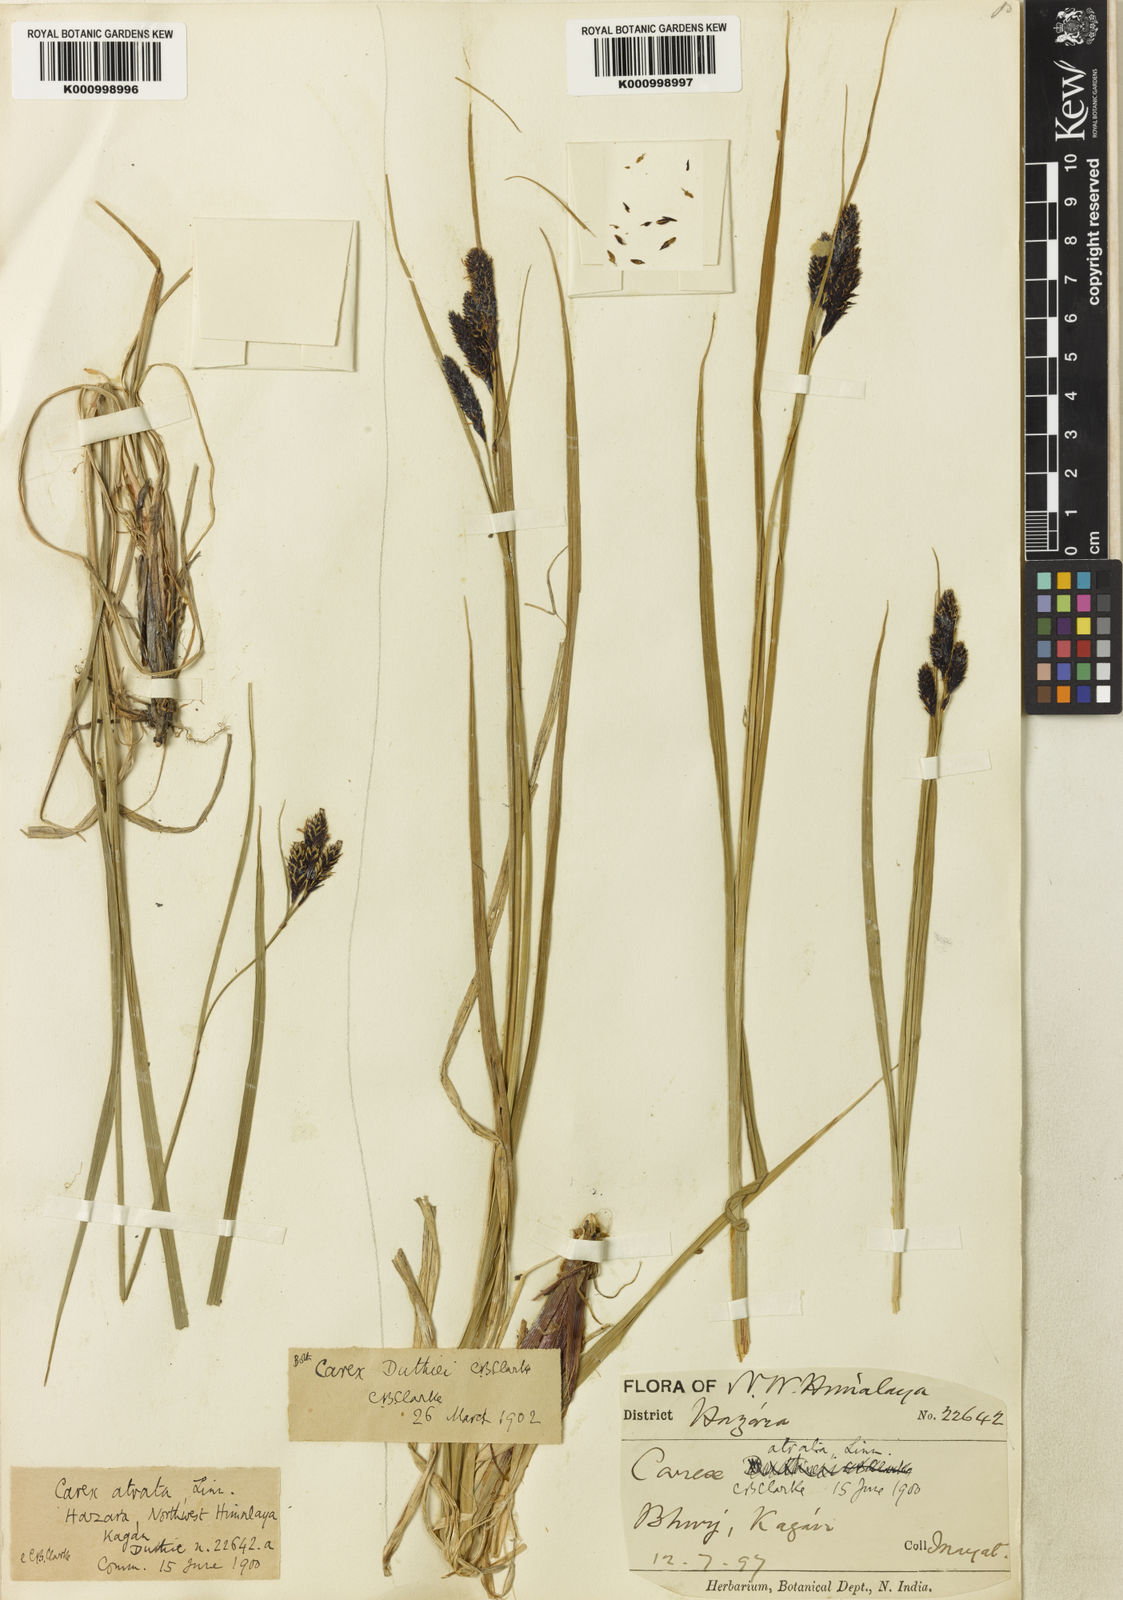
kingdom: Plantae
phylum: Tracheophyta
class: Liliopsida
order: Poales
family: Cyperaceae
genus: Carex
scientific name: Carex atrata
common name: Black alpine sedge
